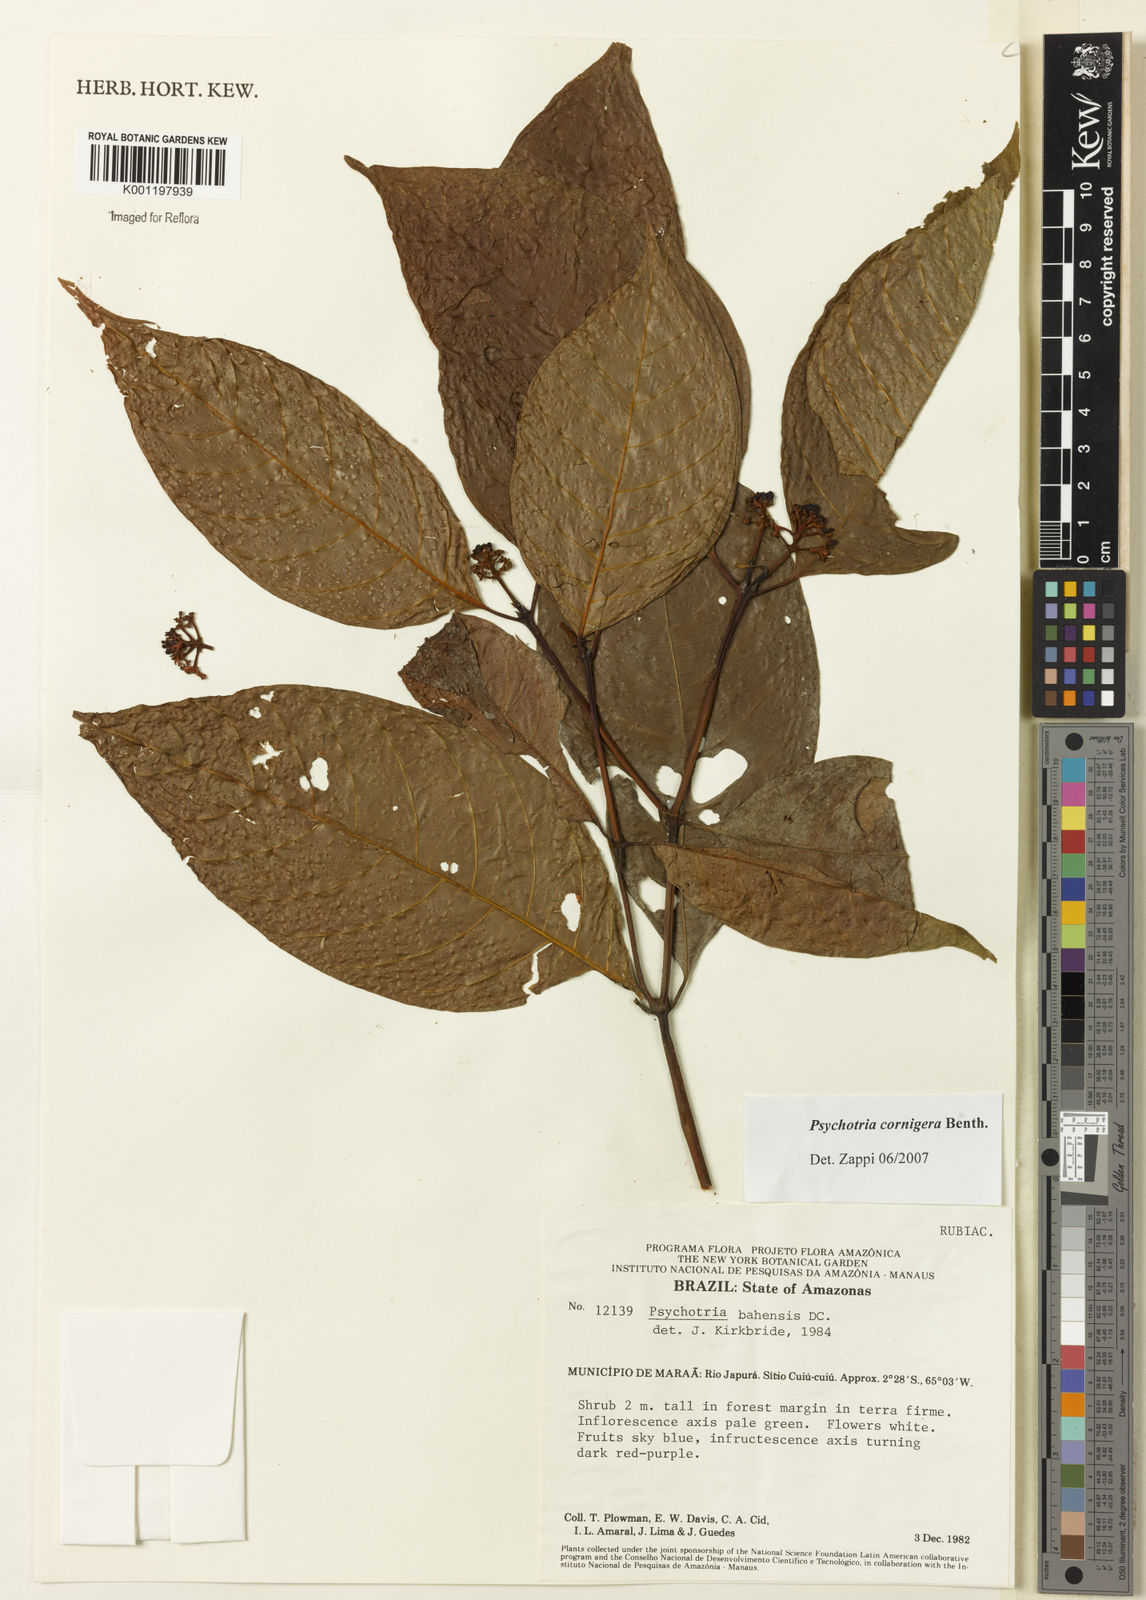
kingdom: Plantae
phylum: Tracheophyta
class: Magnoliopsida
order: Gentianales
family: Rubiaceae
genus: Psychotria
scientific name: Psychotria bahiensis
